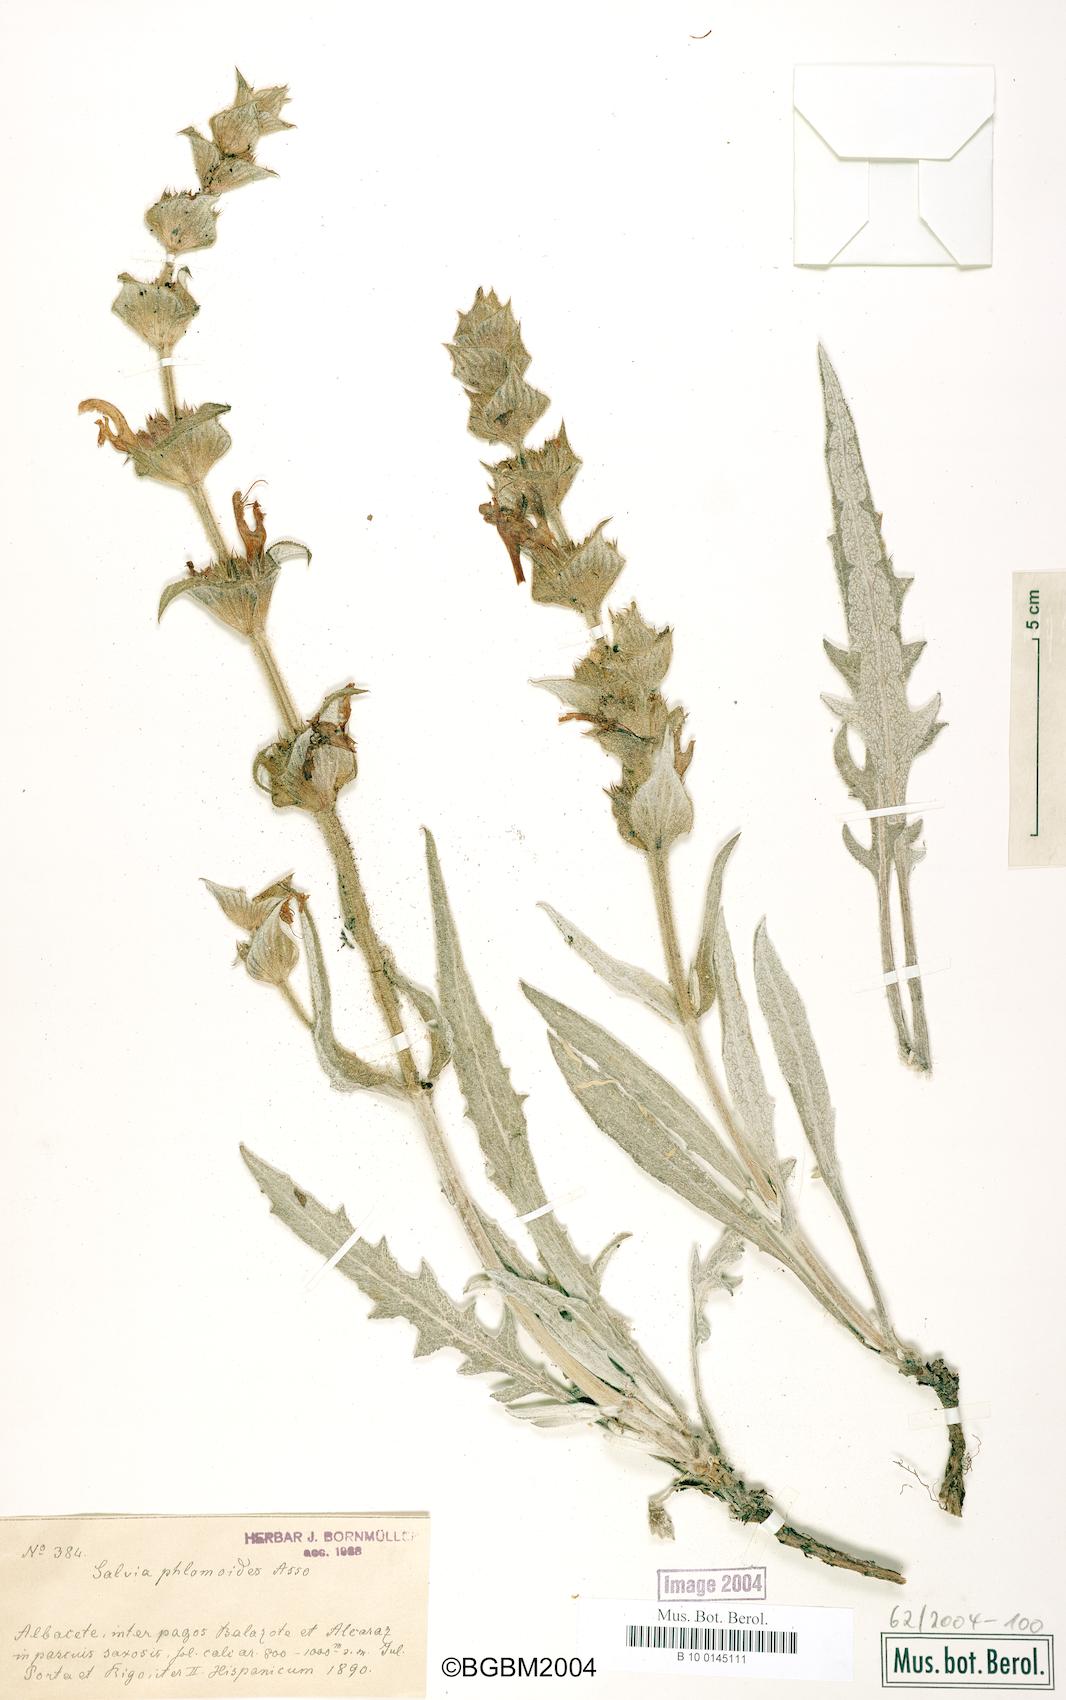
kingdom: Plantae
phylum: Tracheophyta
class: Magnoliopsida
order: Lamiales
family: Lamiaceae
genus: Salvia
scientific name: Salvia phlomoides
